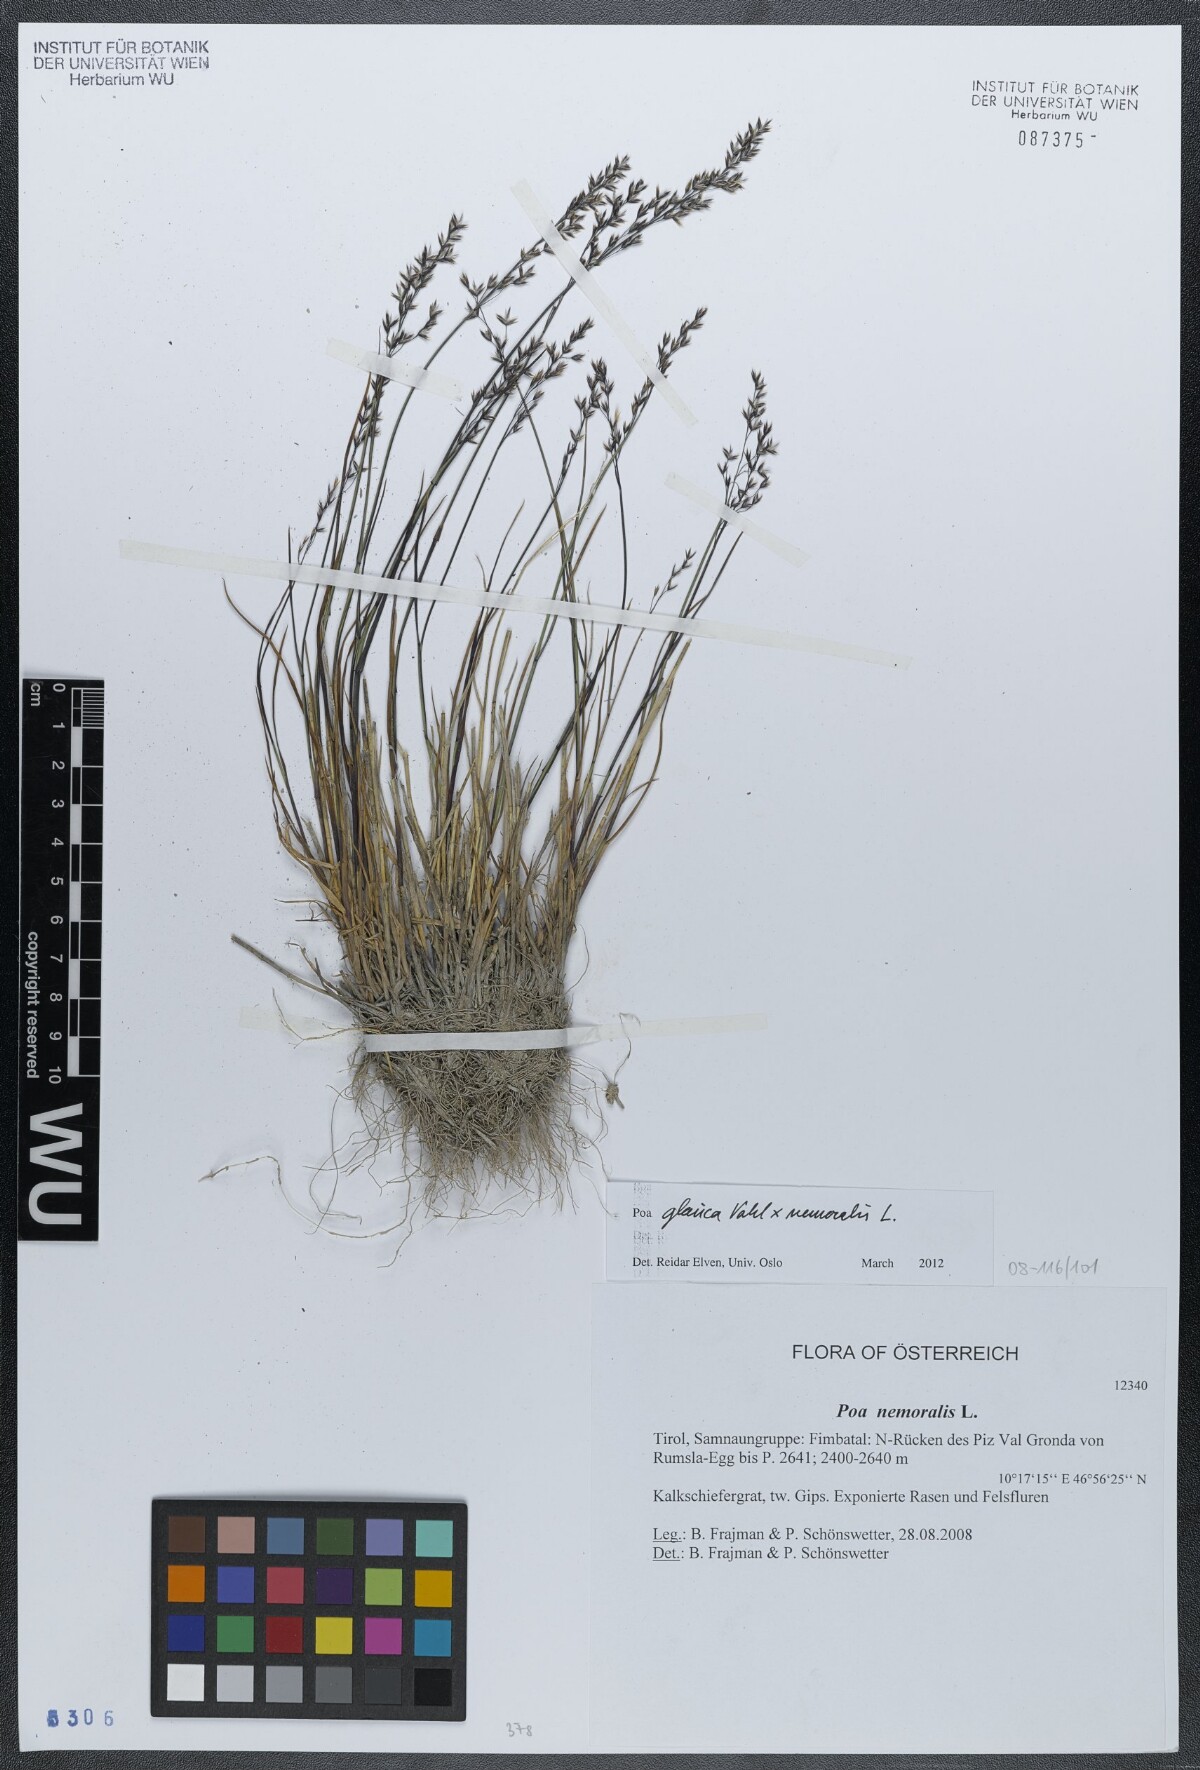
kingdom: Plantae
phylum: Tracheophyta
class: Liliopsida
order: Poales
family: Poaceae
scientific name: Poaceae
